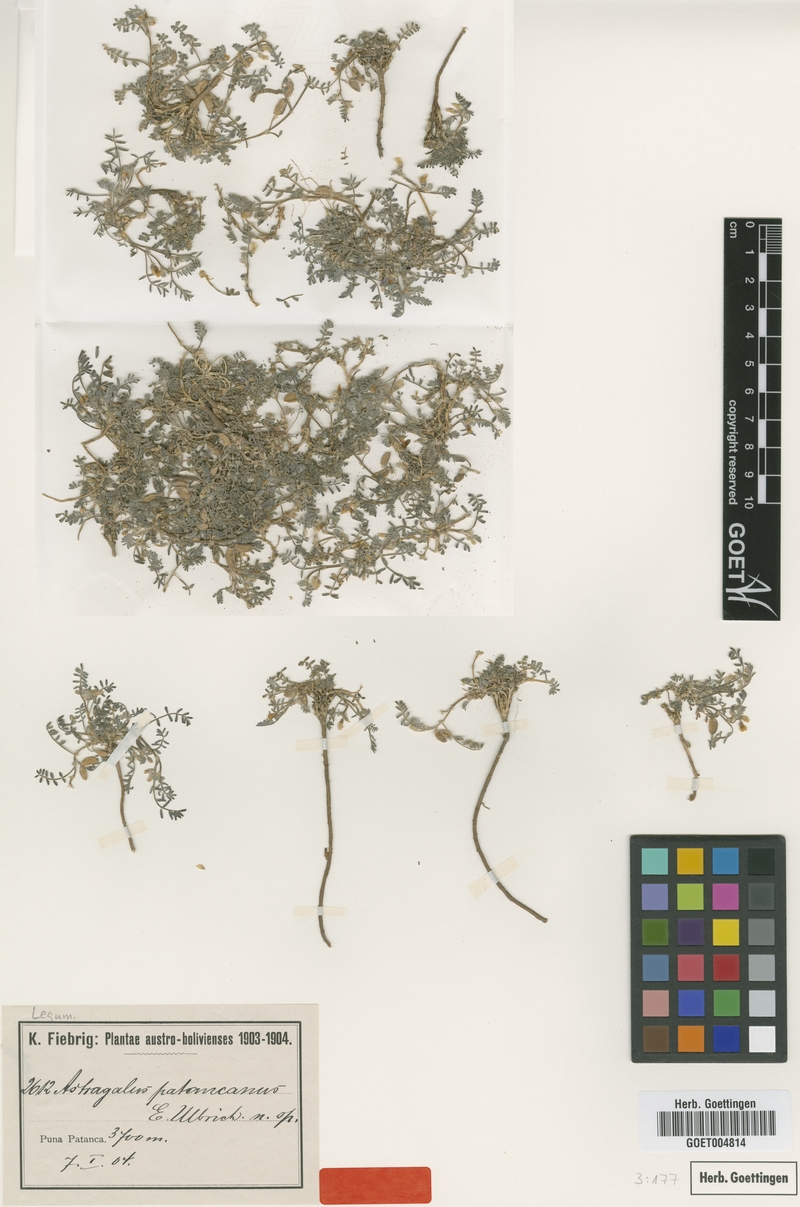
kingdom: Plantae
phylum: Tracheophyta
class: Magnoliopsida
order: Fabales
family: Fabaceae
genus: Astragalus
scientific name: Astragalus micranthellus
